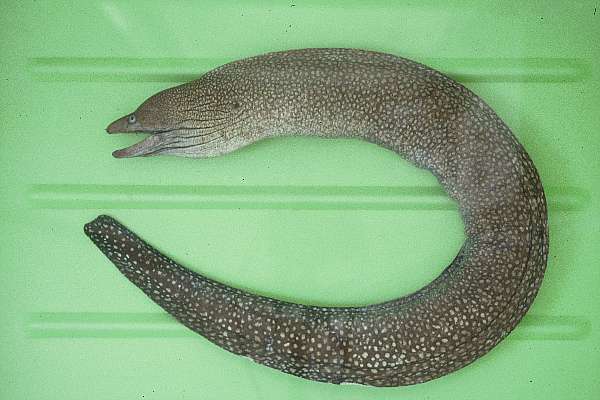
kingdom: Animalia
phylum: Chordata
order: Anguilliformes
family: Muraenidae
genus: Gymnothorax
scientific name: Gymnothorax johnsoni
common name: Whitespotted moray
